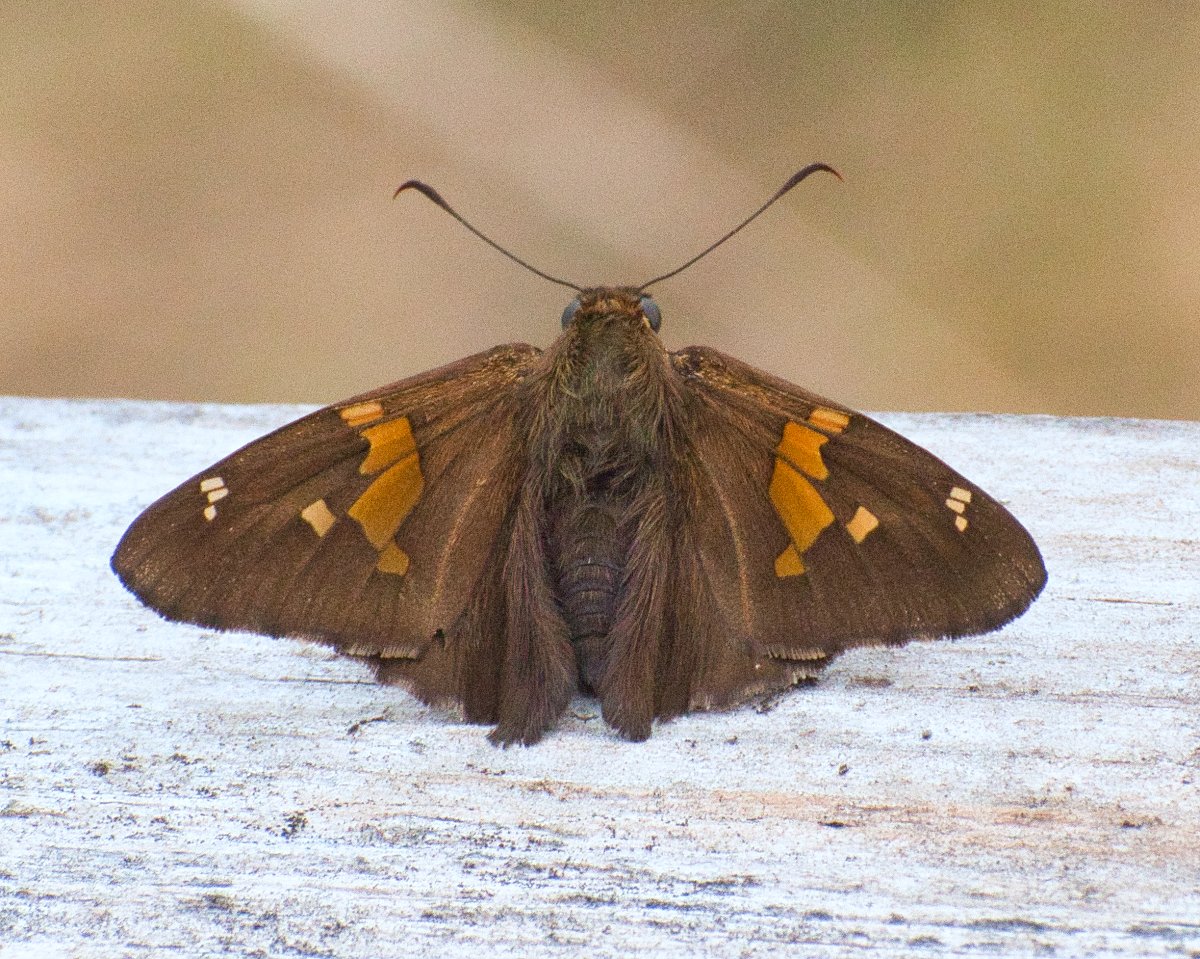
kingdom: Animalia
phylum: Arthropoda
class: Insecta
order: Lepidoptera
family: Hesperiidae
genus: Epargyreus
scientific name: Epargyreus clarus
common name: Silver-spotted Skipper
